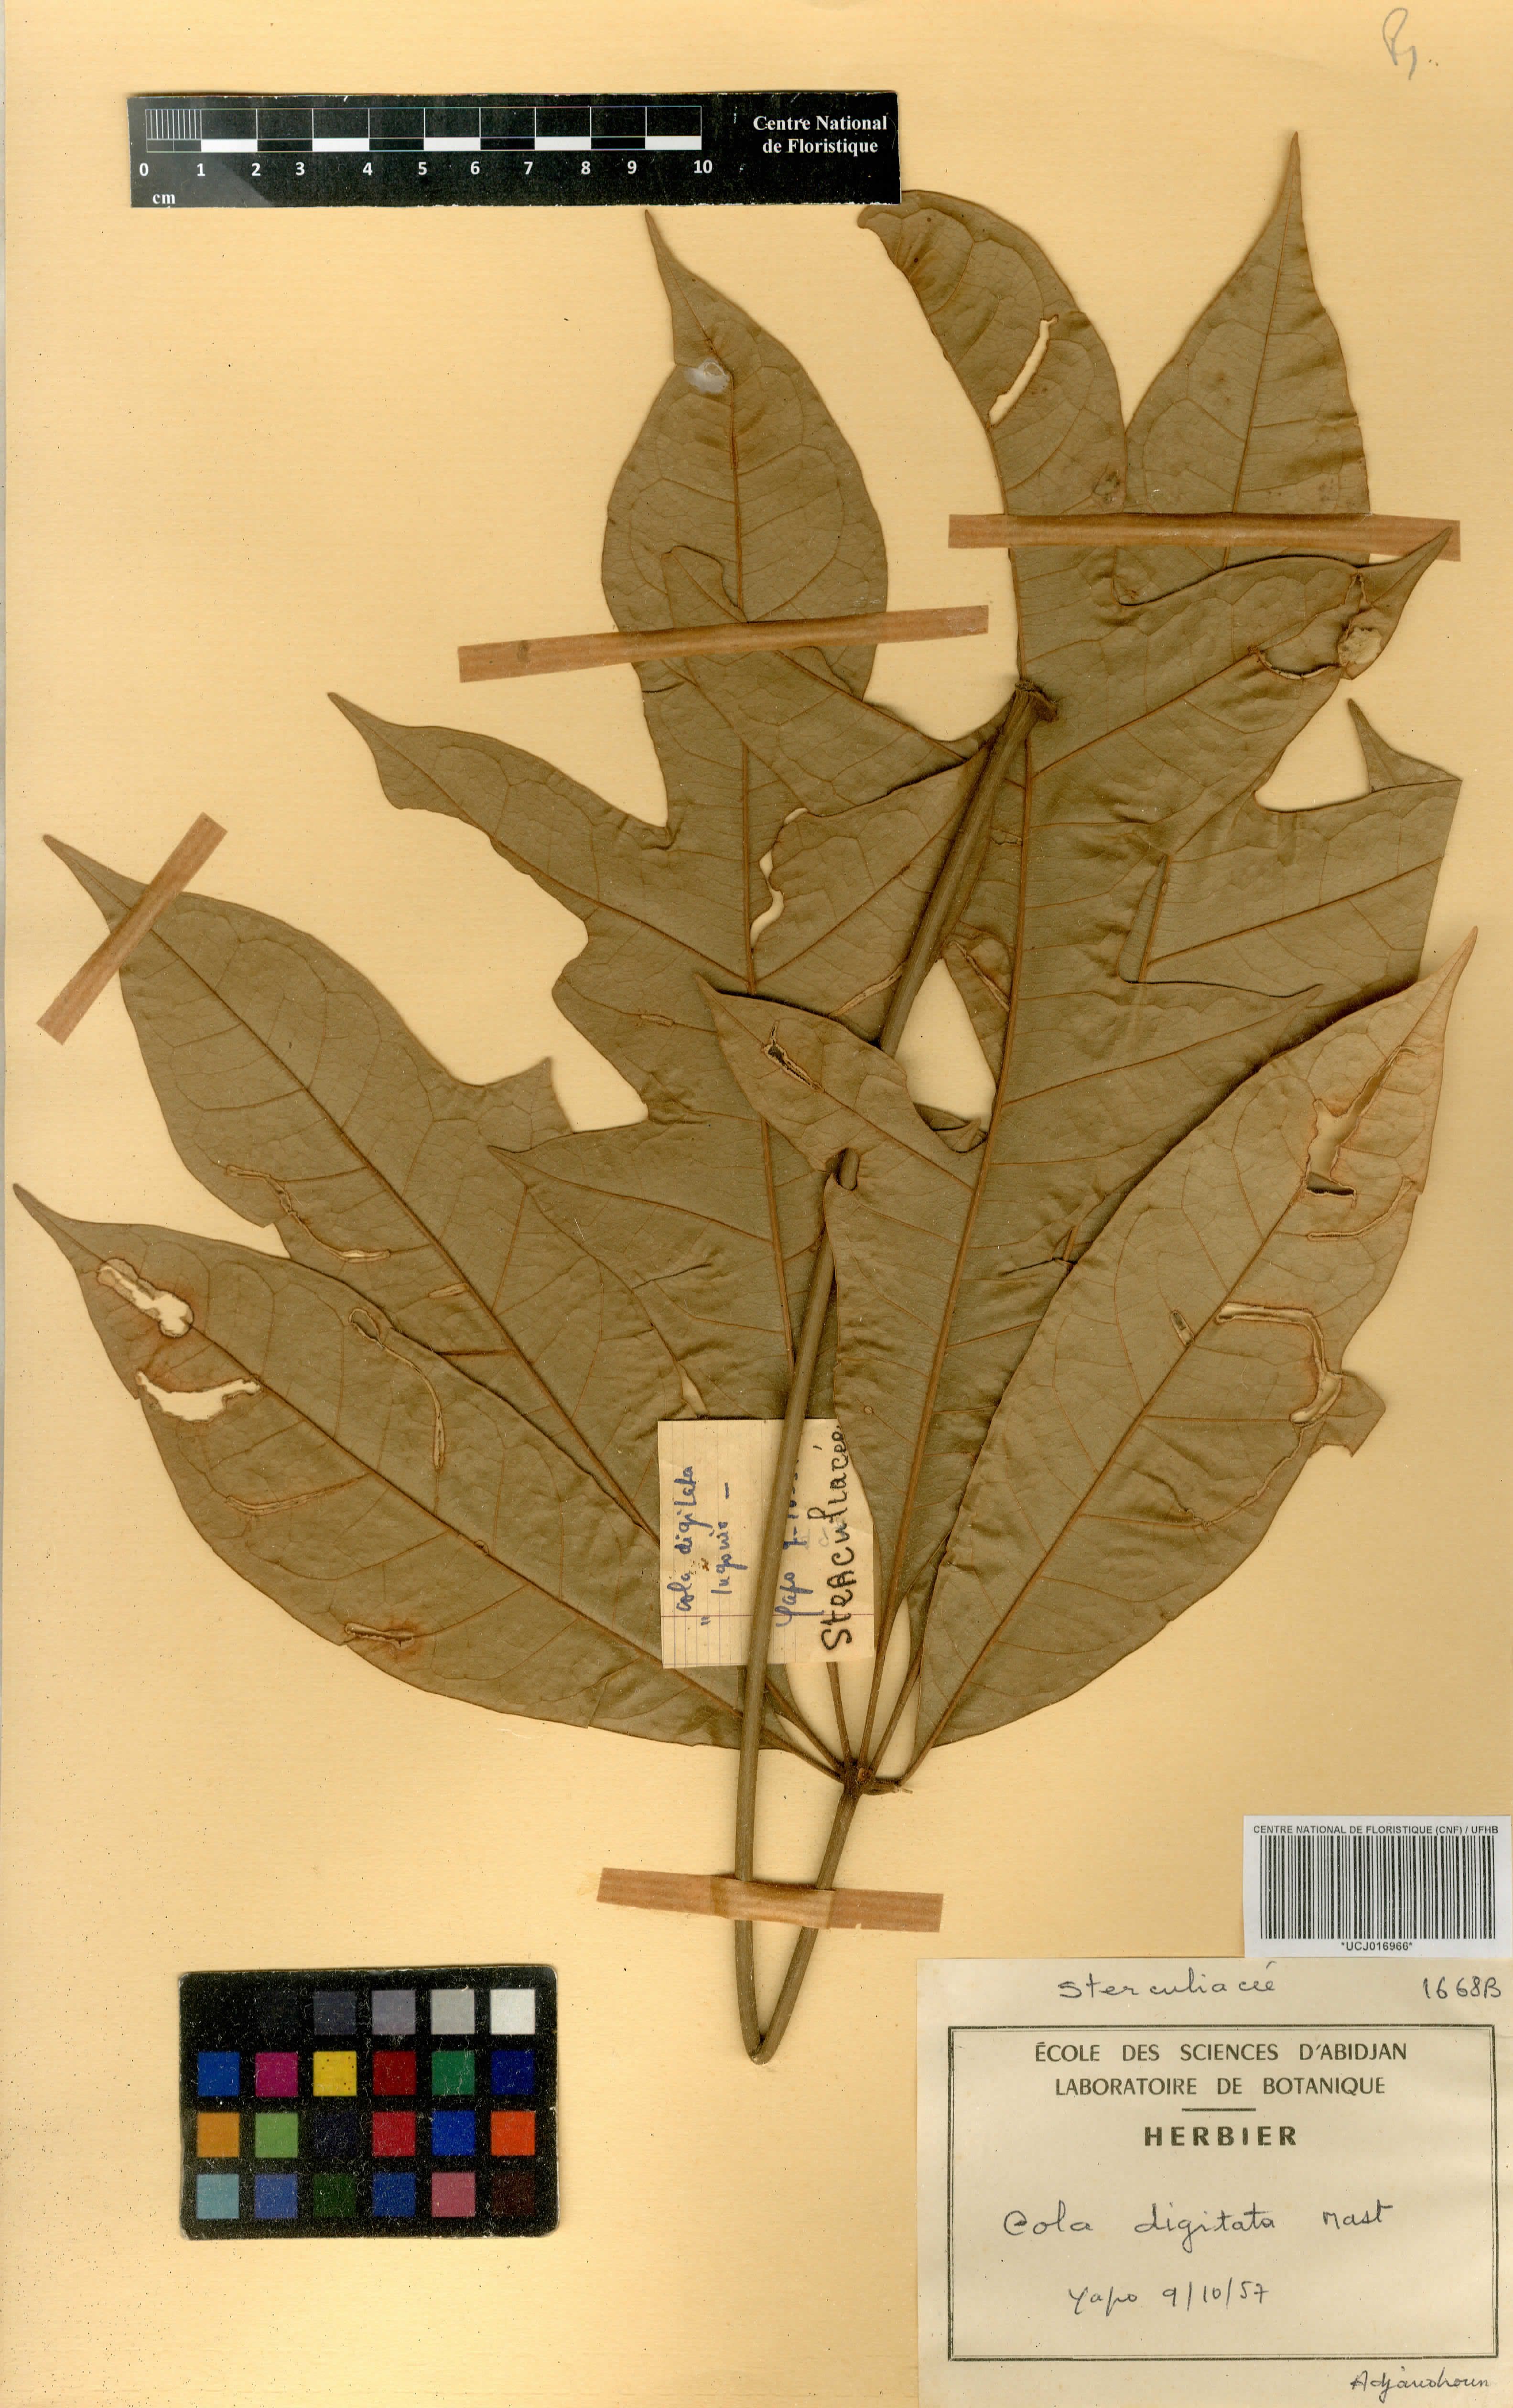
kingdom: Plantae
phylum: Tracheophyta
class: Magnoliopsida
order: Malvales
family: Malvaceae
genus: Cola
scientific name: Cola digitata
